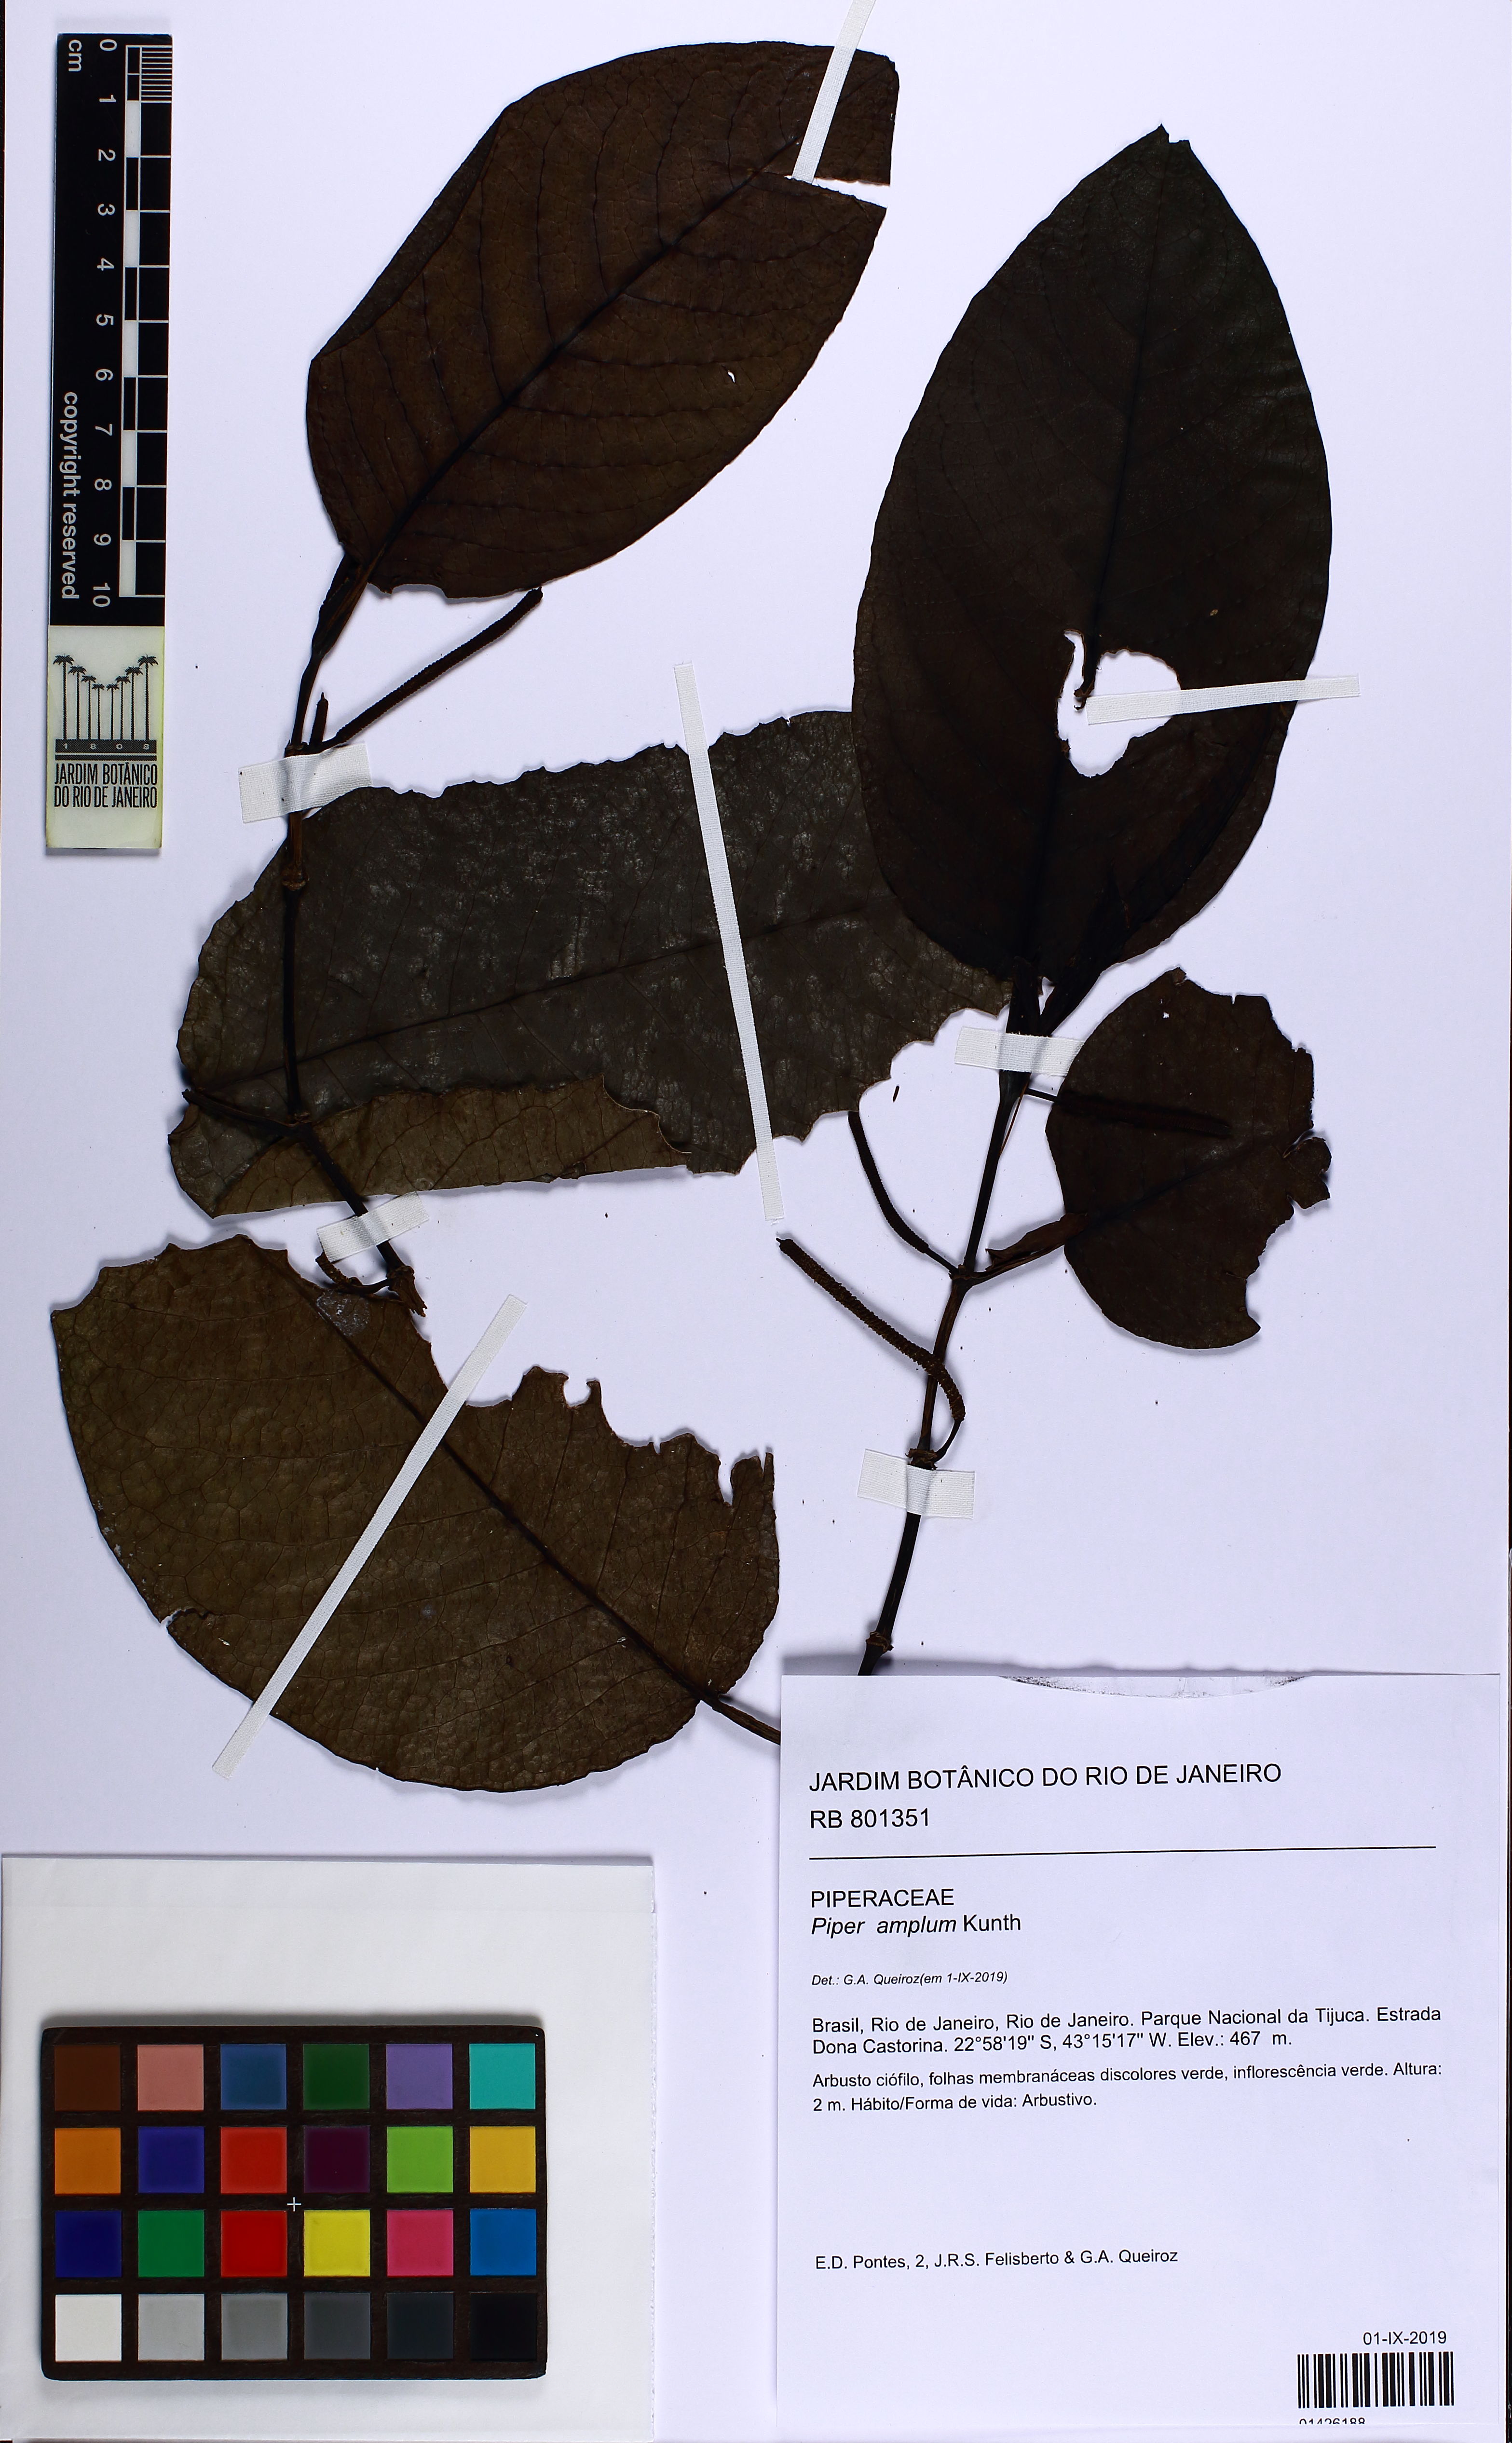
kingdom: Plantae
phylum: Tracheophyta
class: Magnoliopsida
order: Piperales
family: Piperaceae
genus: Piper
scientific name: Piper fluminense
